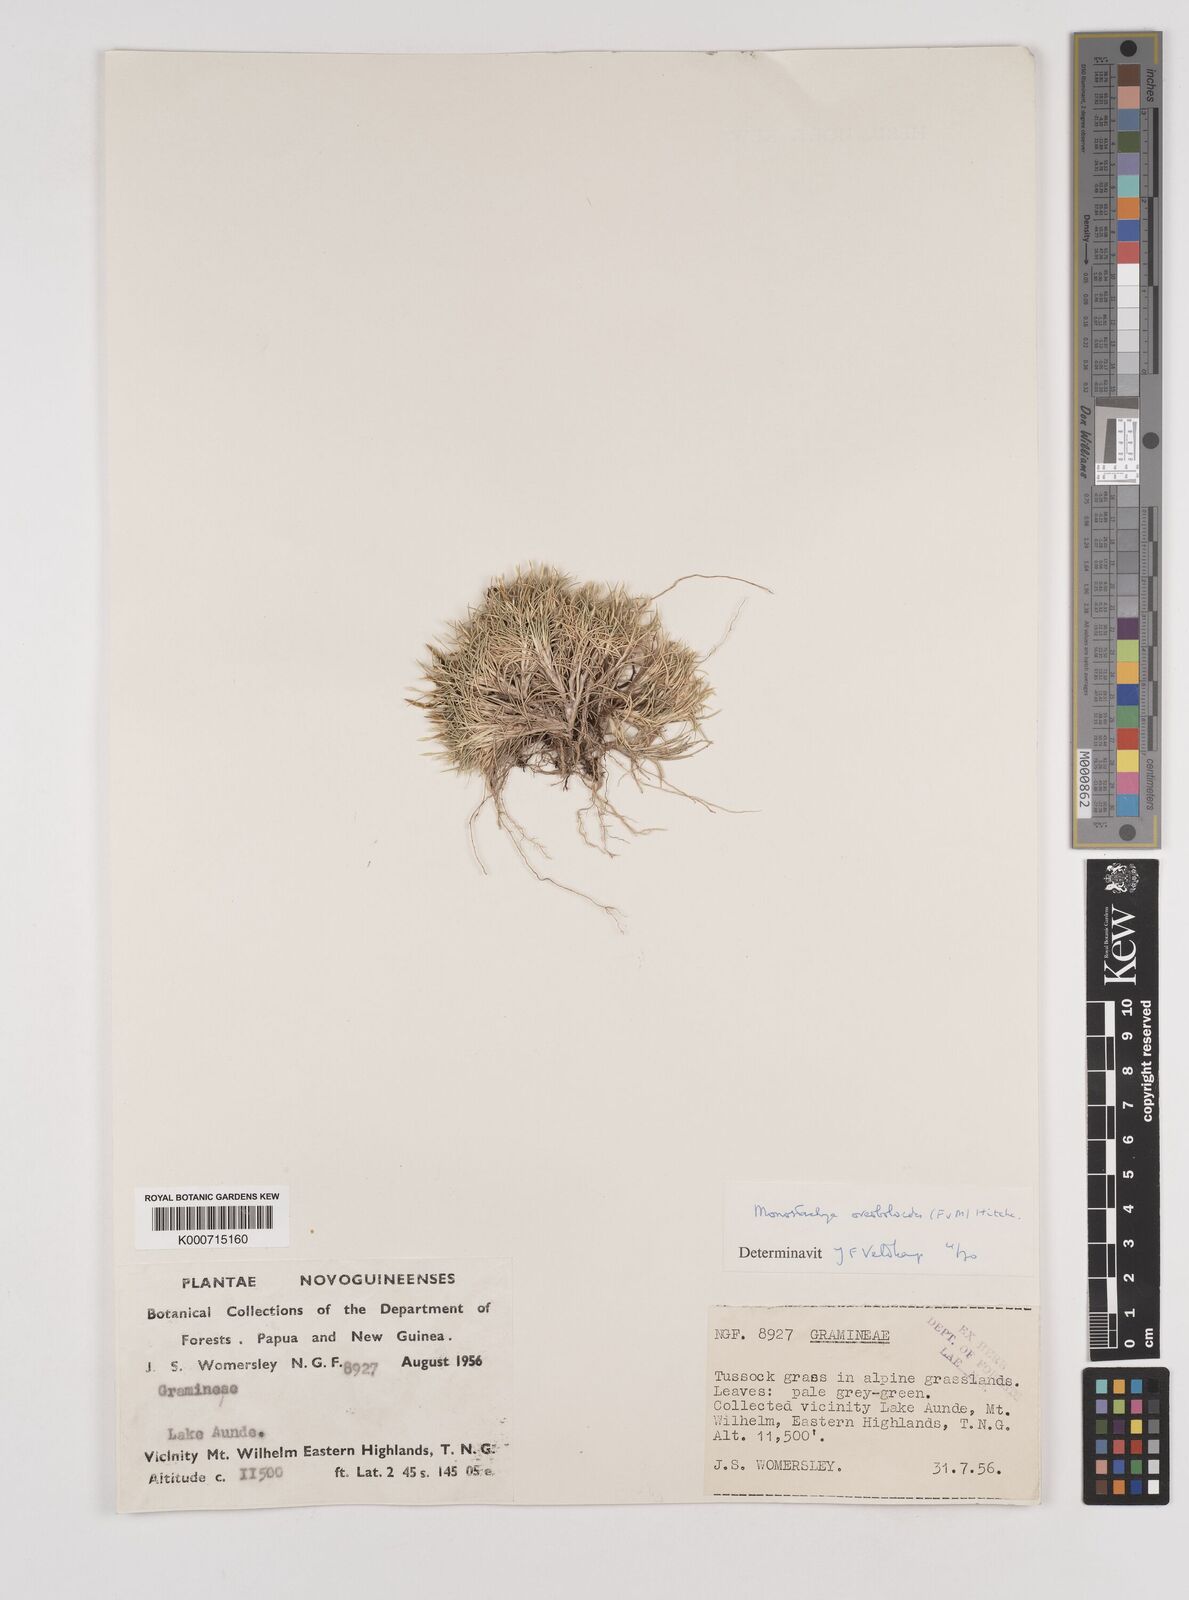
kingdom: Plantae
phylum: Tracheophyta
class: Liliopsida
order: Poales
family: Poaceae
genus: Rytidosperma
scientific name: Rytidosperma oreoboloides
